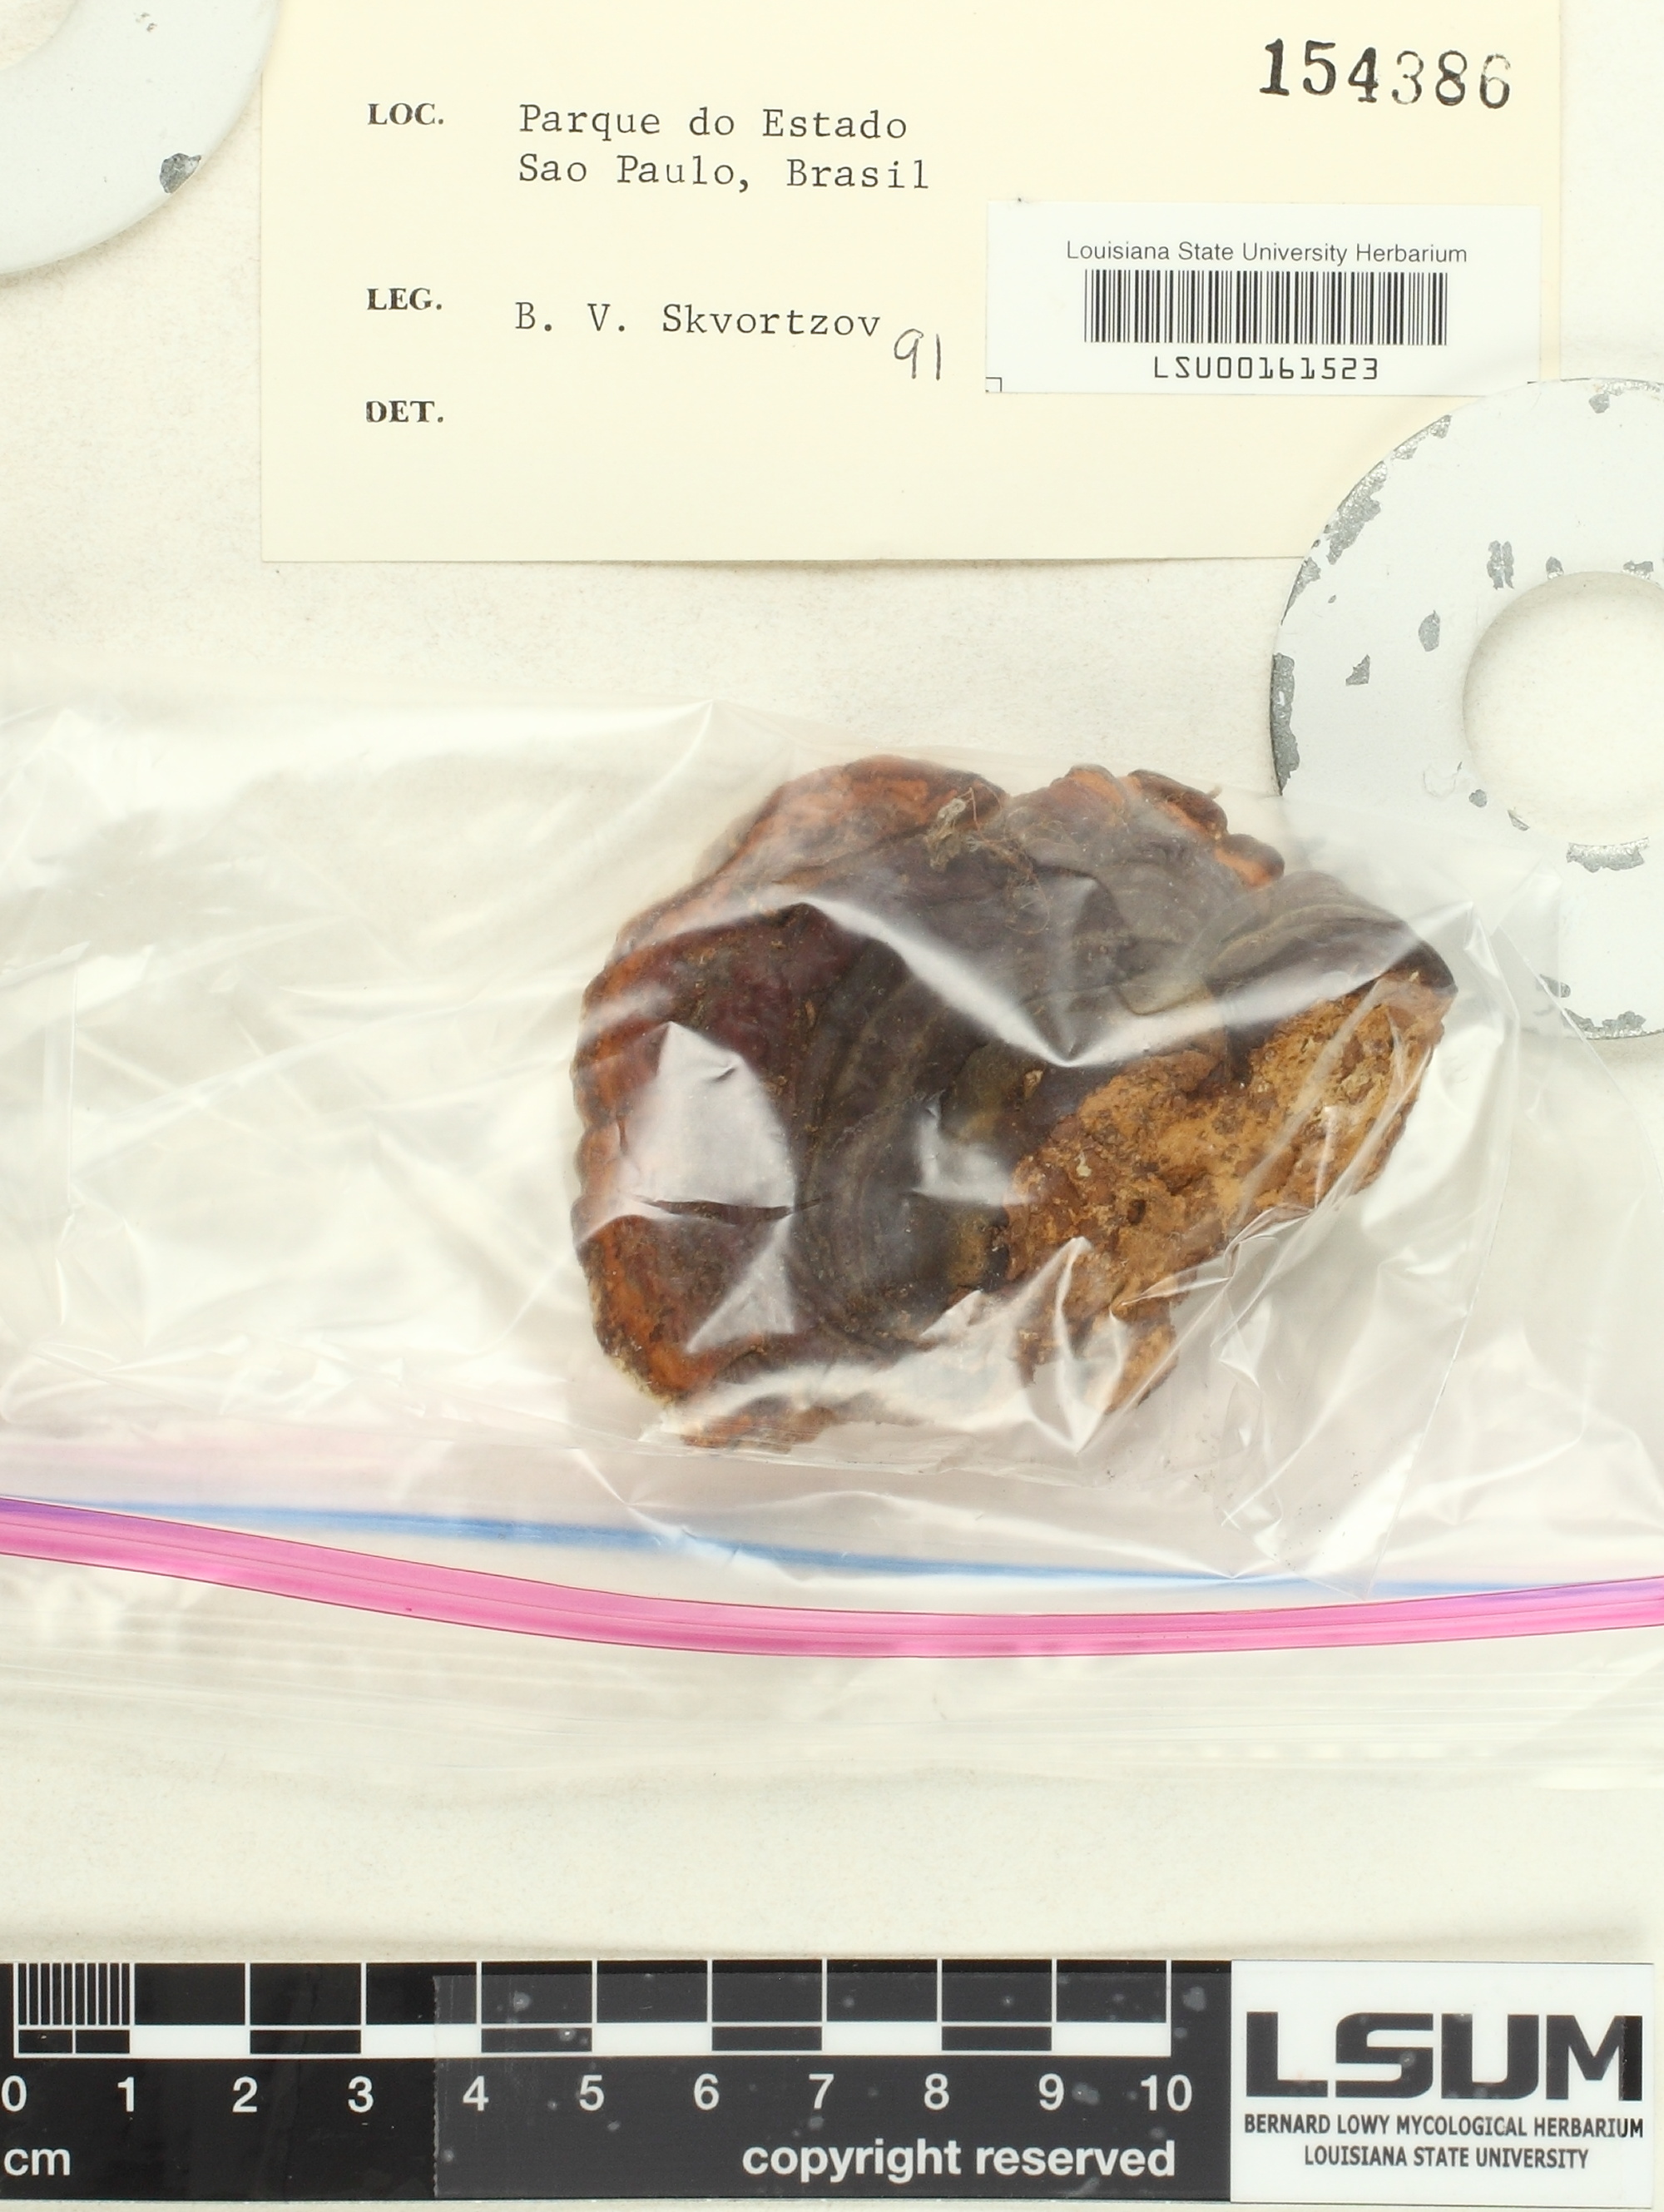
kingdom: Fungi
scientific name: Fungi
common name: Fungi
